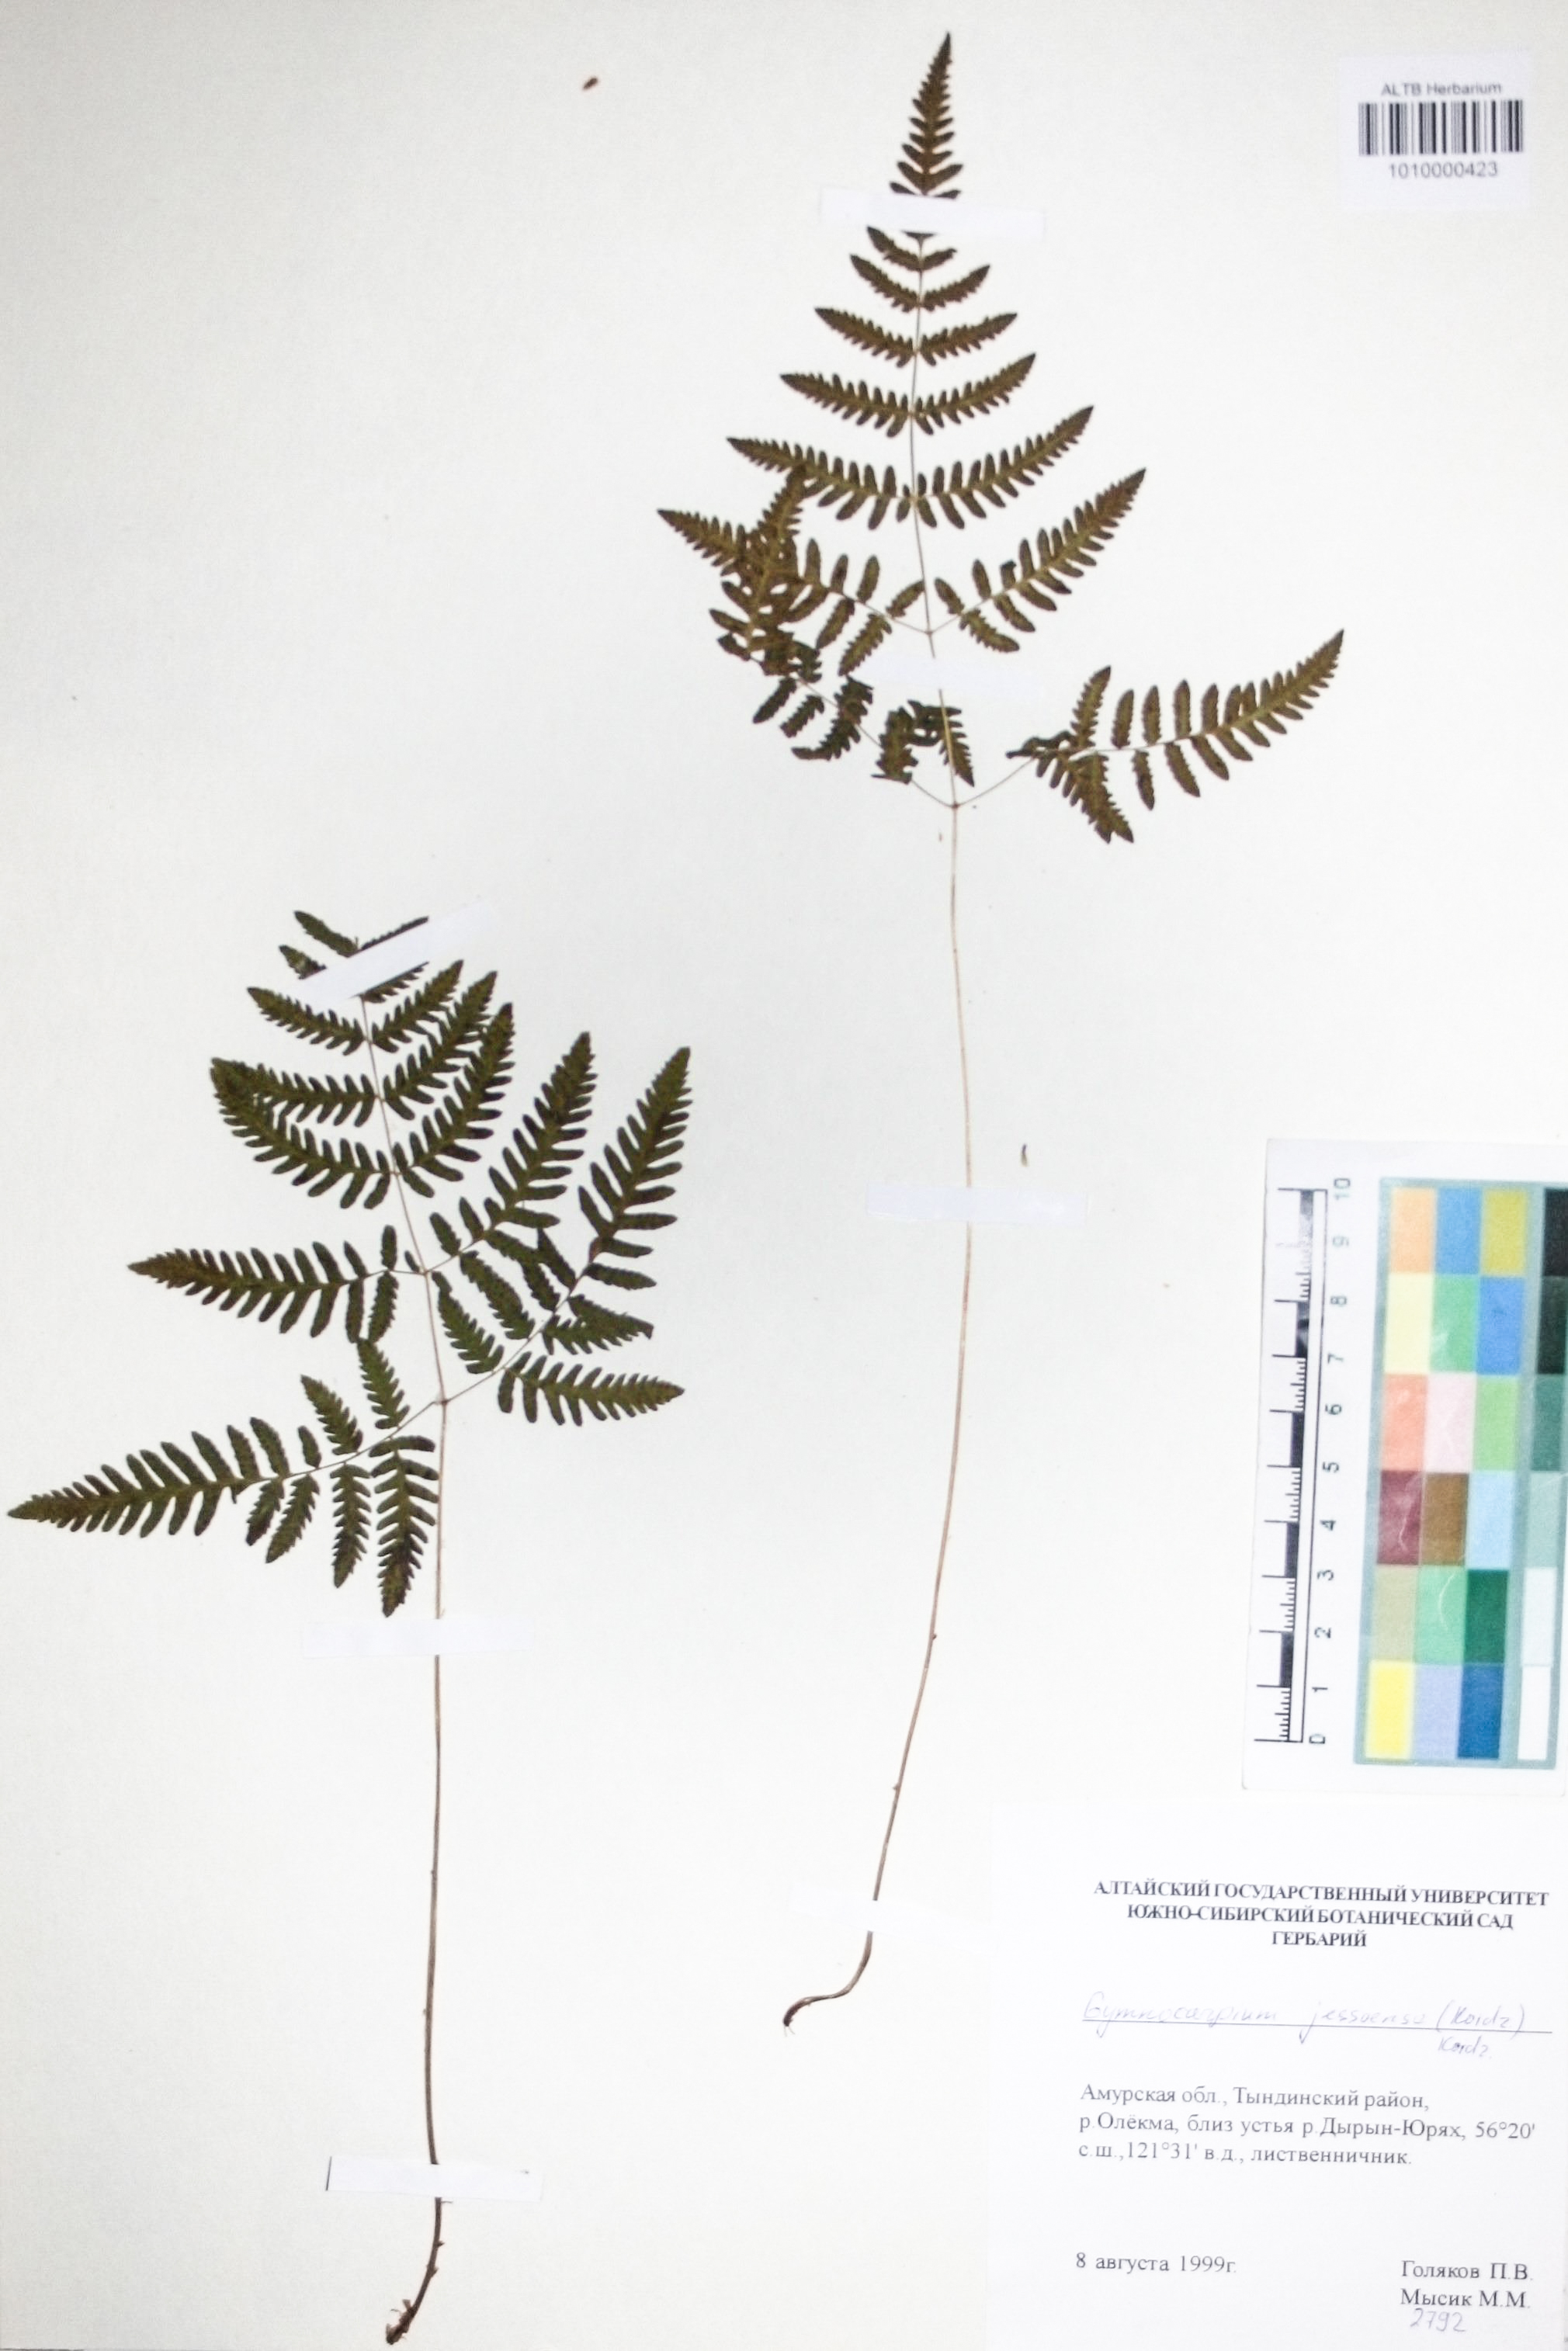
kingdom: Plantae
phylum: Tracheophyta
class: Polypodiopsida
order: Polypodiales
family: Cystopteridaceae
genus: Gymnocarpium
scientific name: Gymnocarpium jessoense
